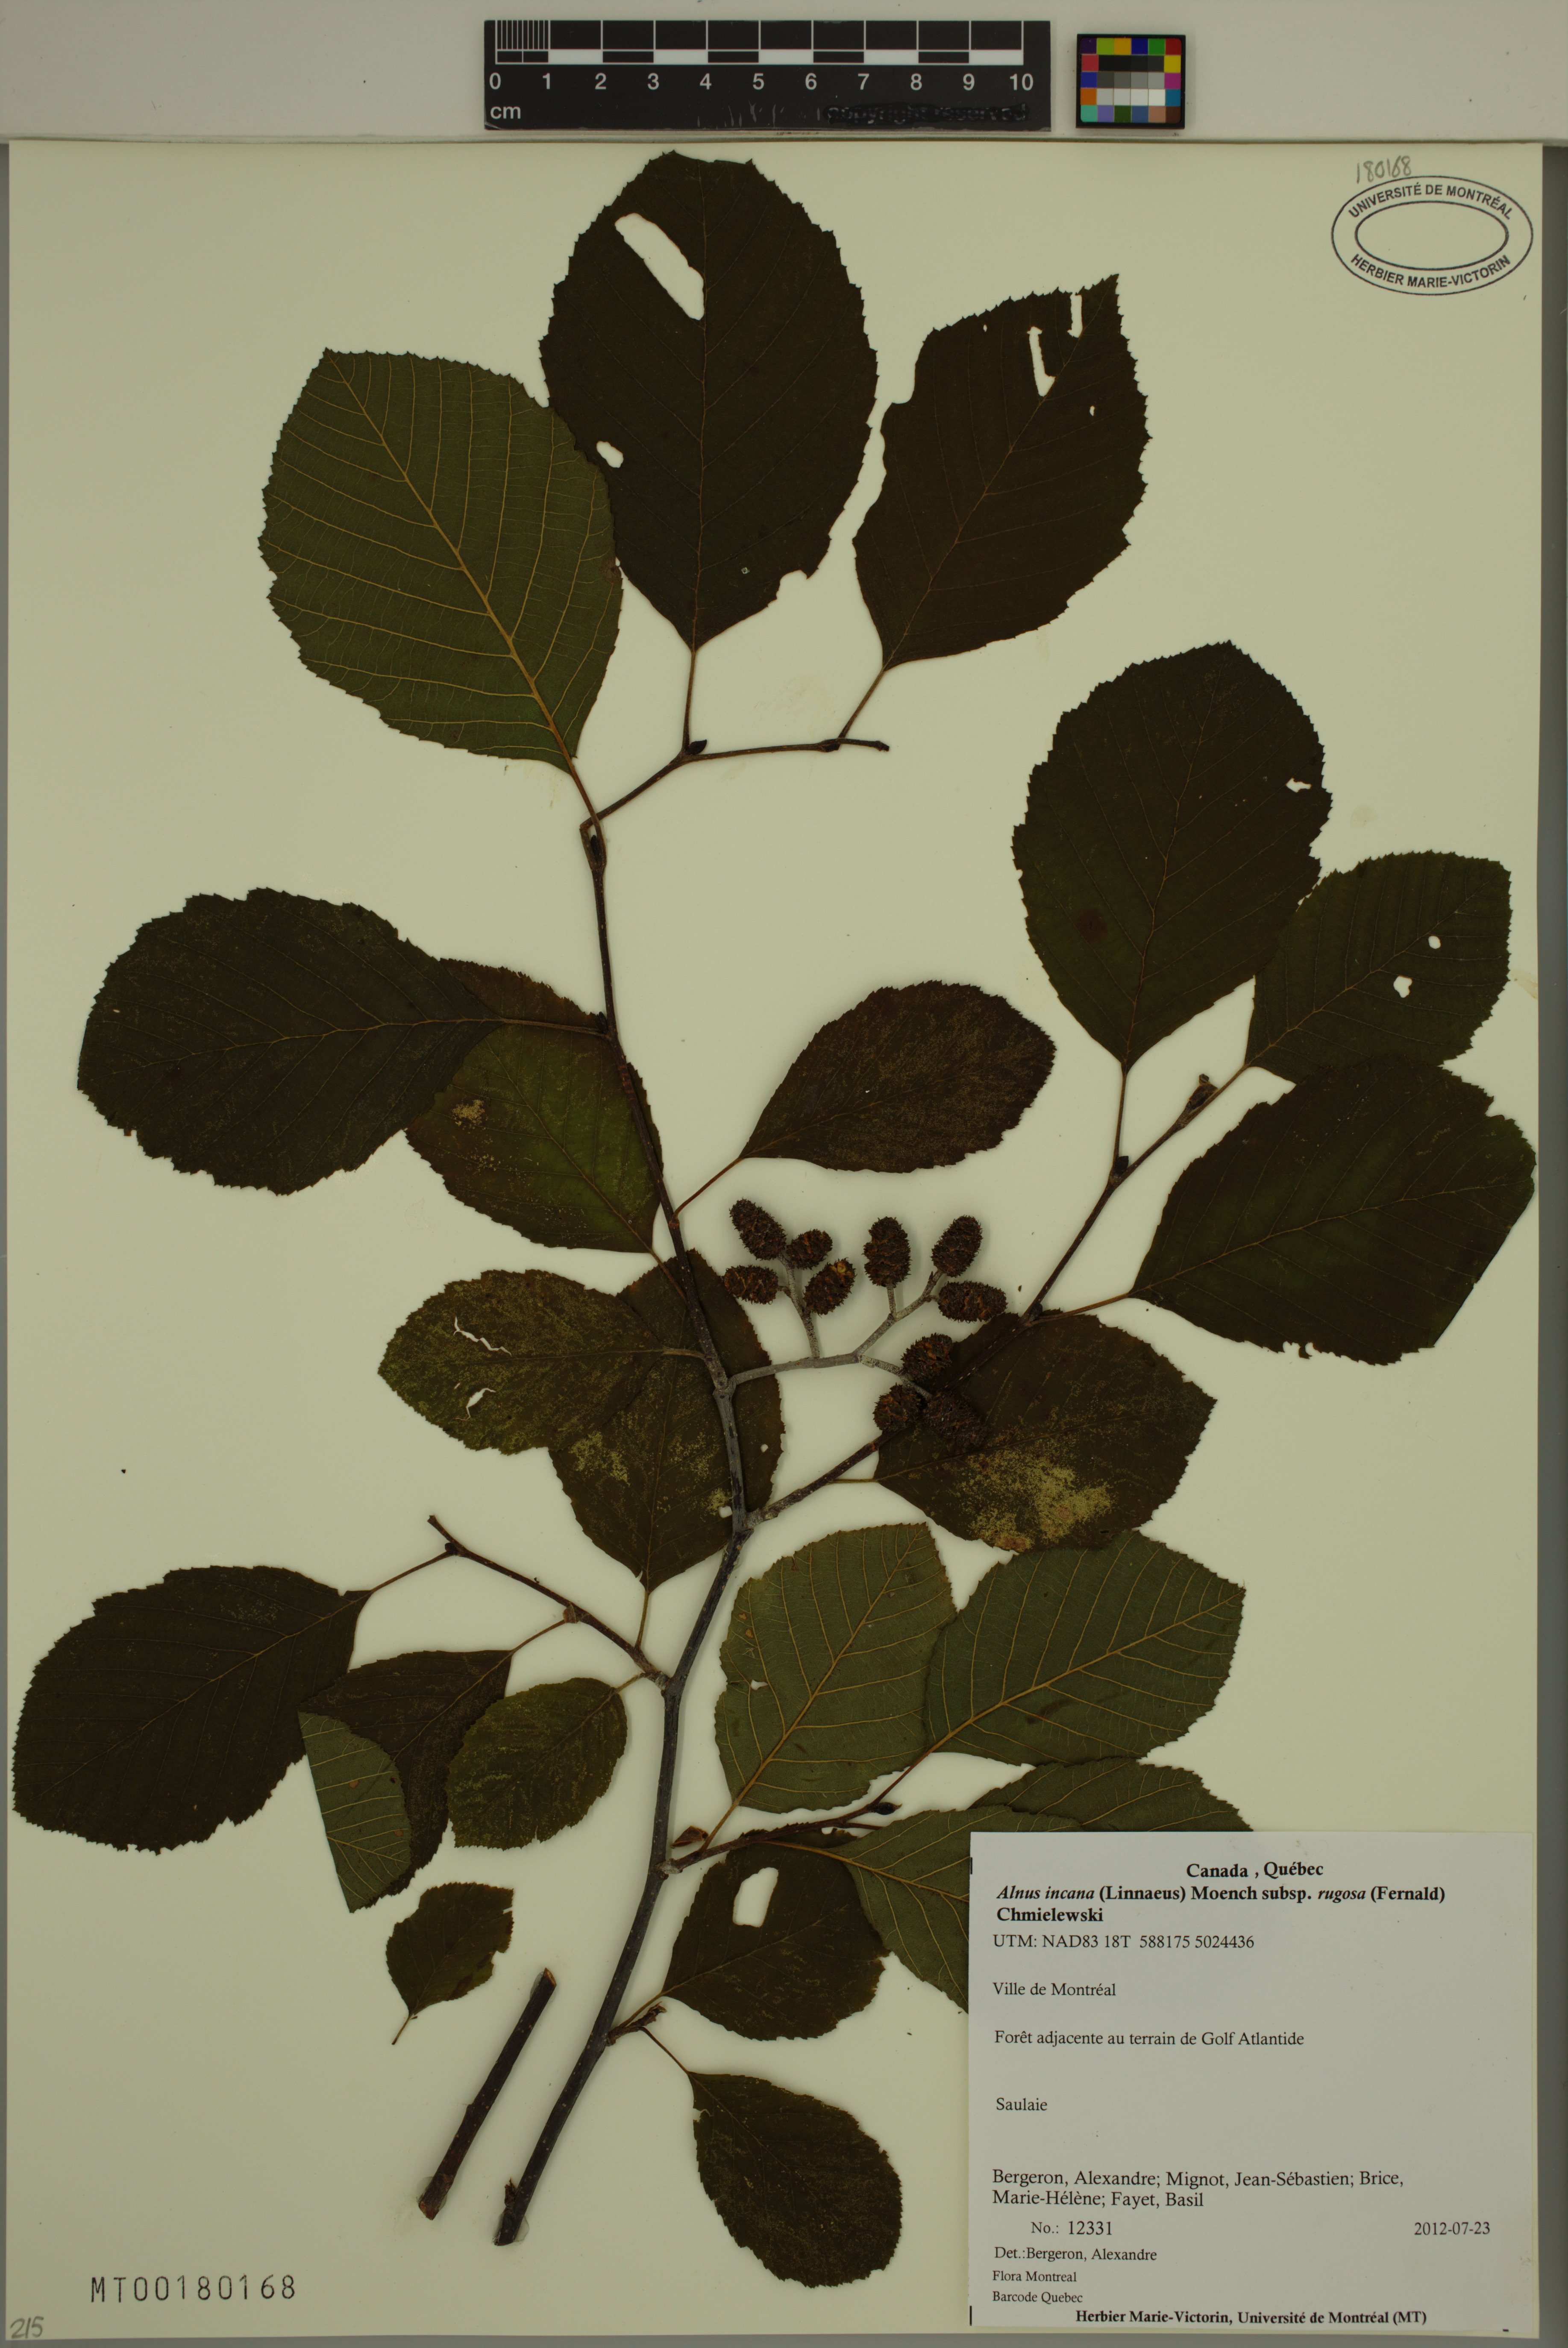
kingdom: Plantae
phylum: Tracheophyta
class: Magnoliopsida
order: Fagales
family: Betulaceae
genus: Alnus
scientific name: Alnus incana
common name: Grey alder
